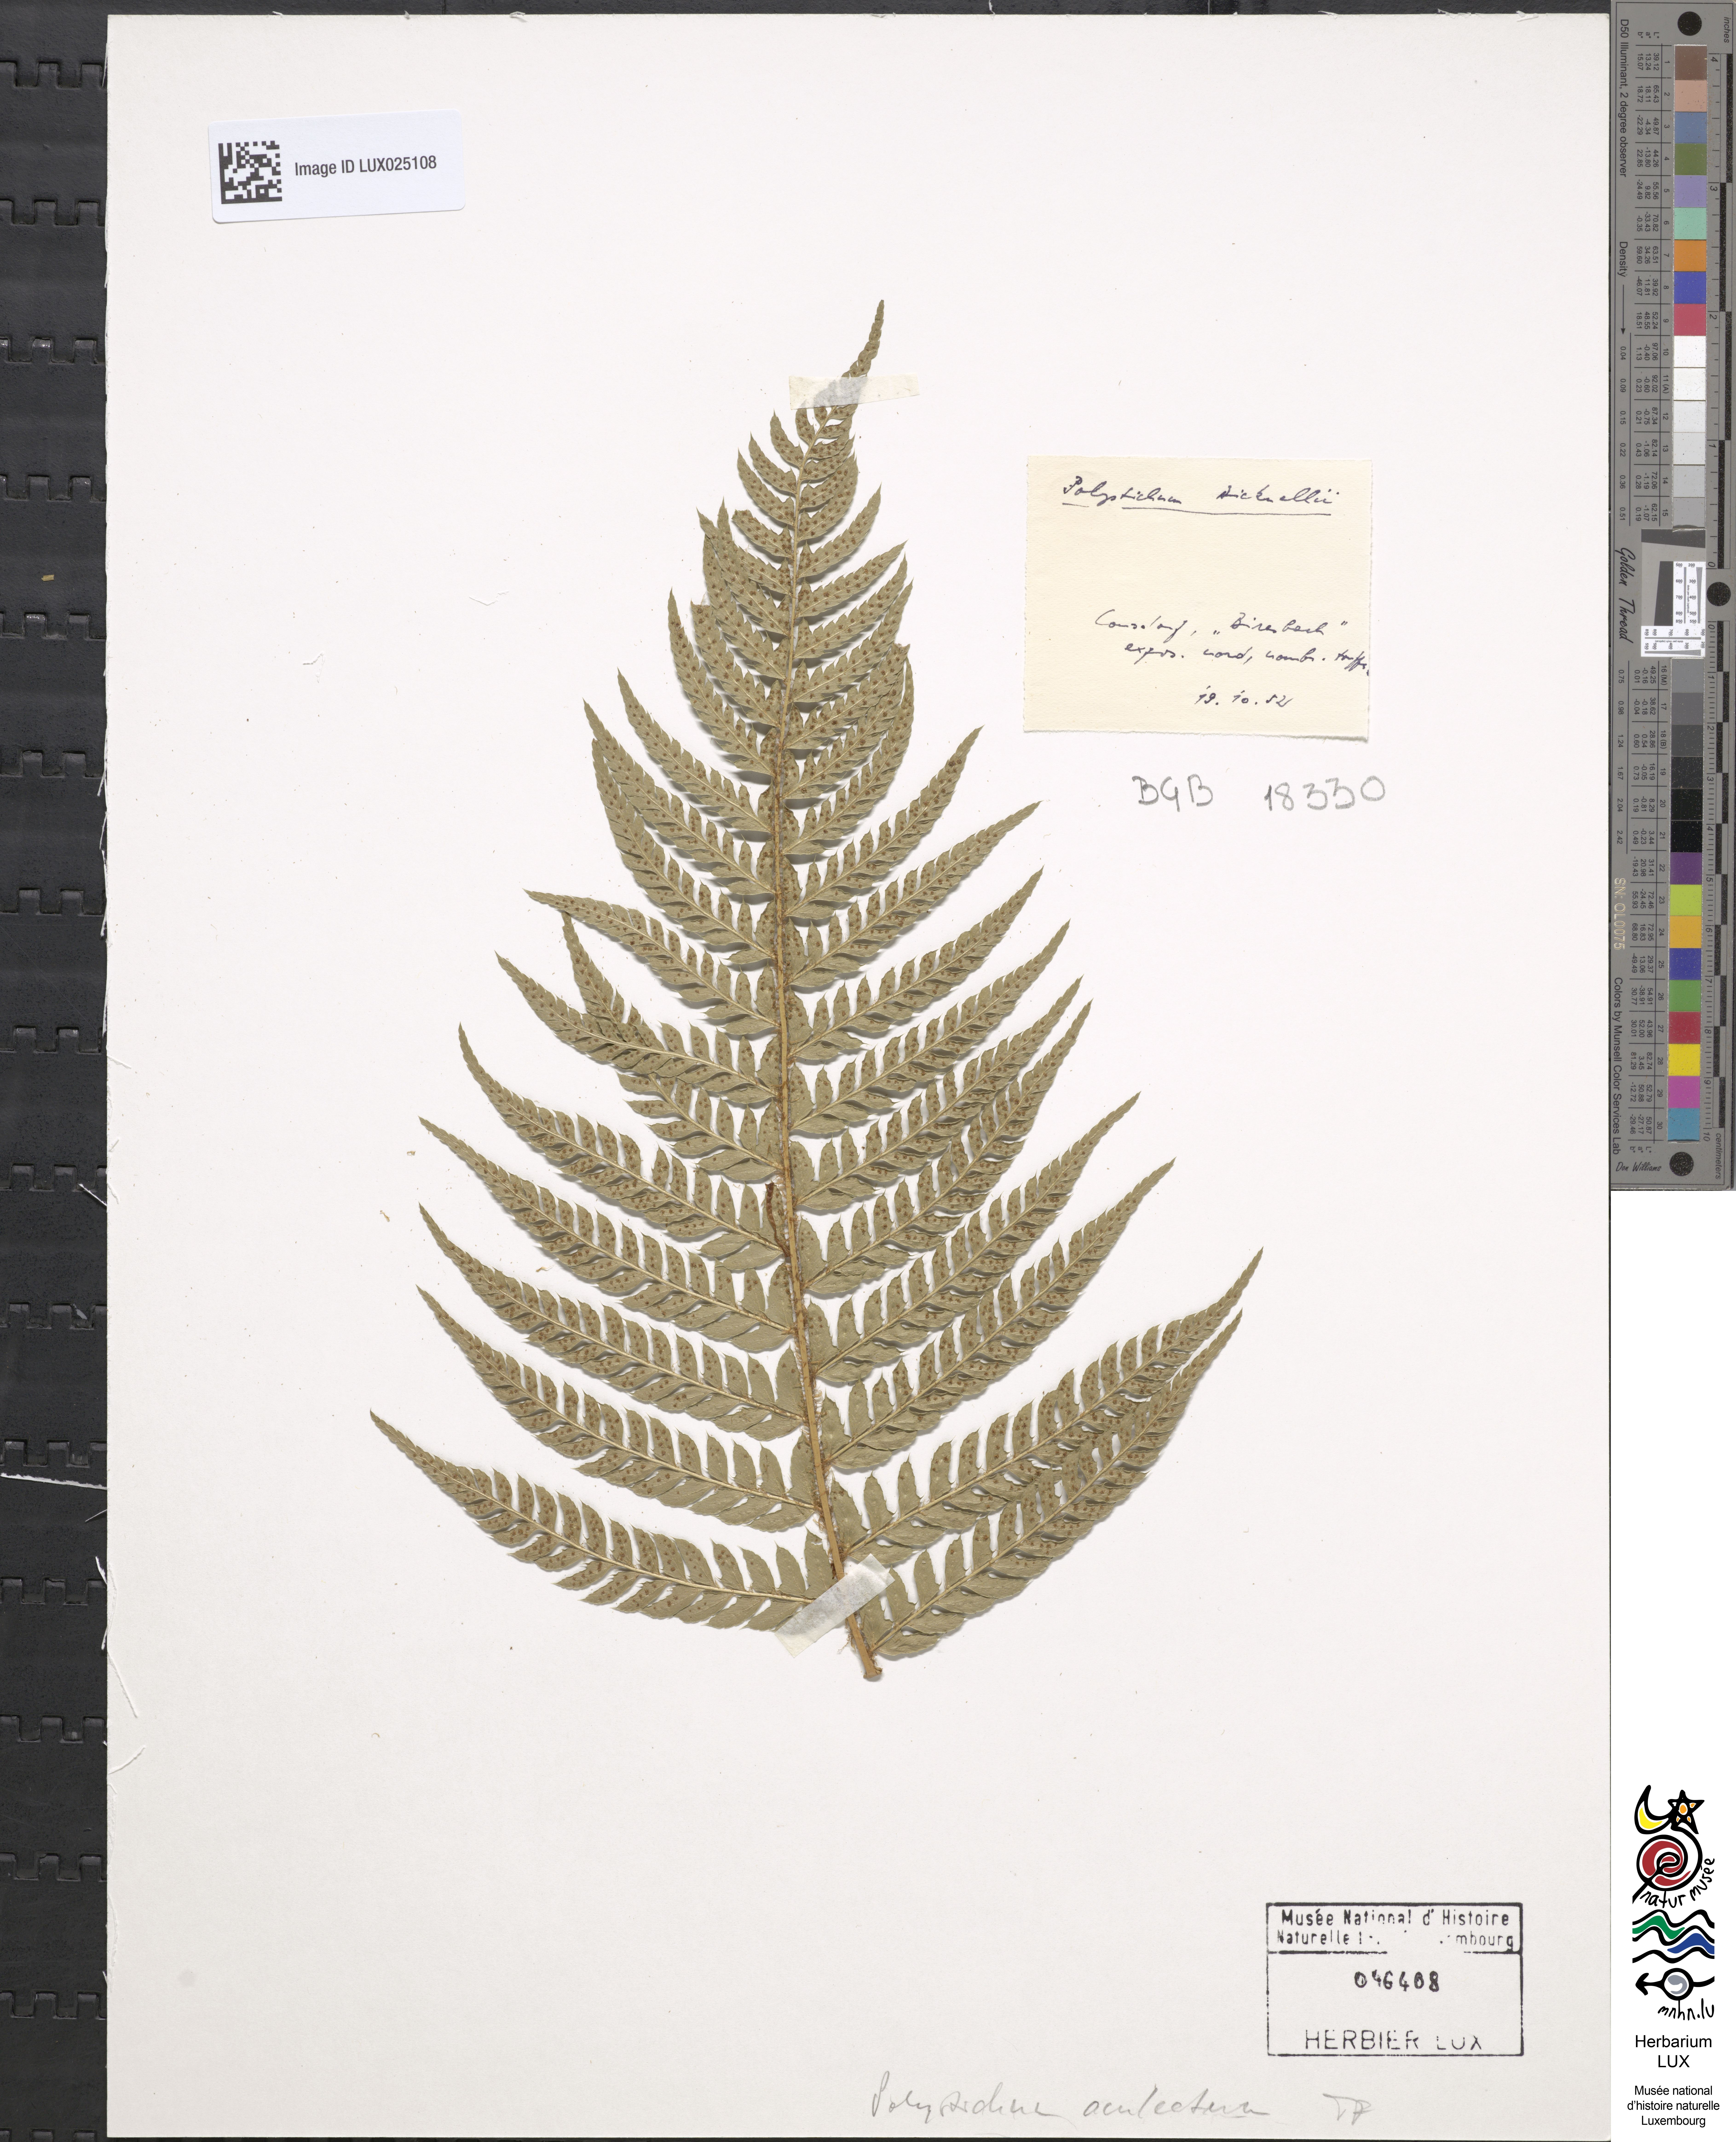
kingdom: Plantae
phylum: Tracheophyta
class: Polypodiopsida
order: Polypodiales
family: Dryopteridaceae
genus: Polystichum
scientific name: Polystichum aculeatum
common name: Hard shield-fern
